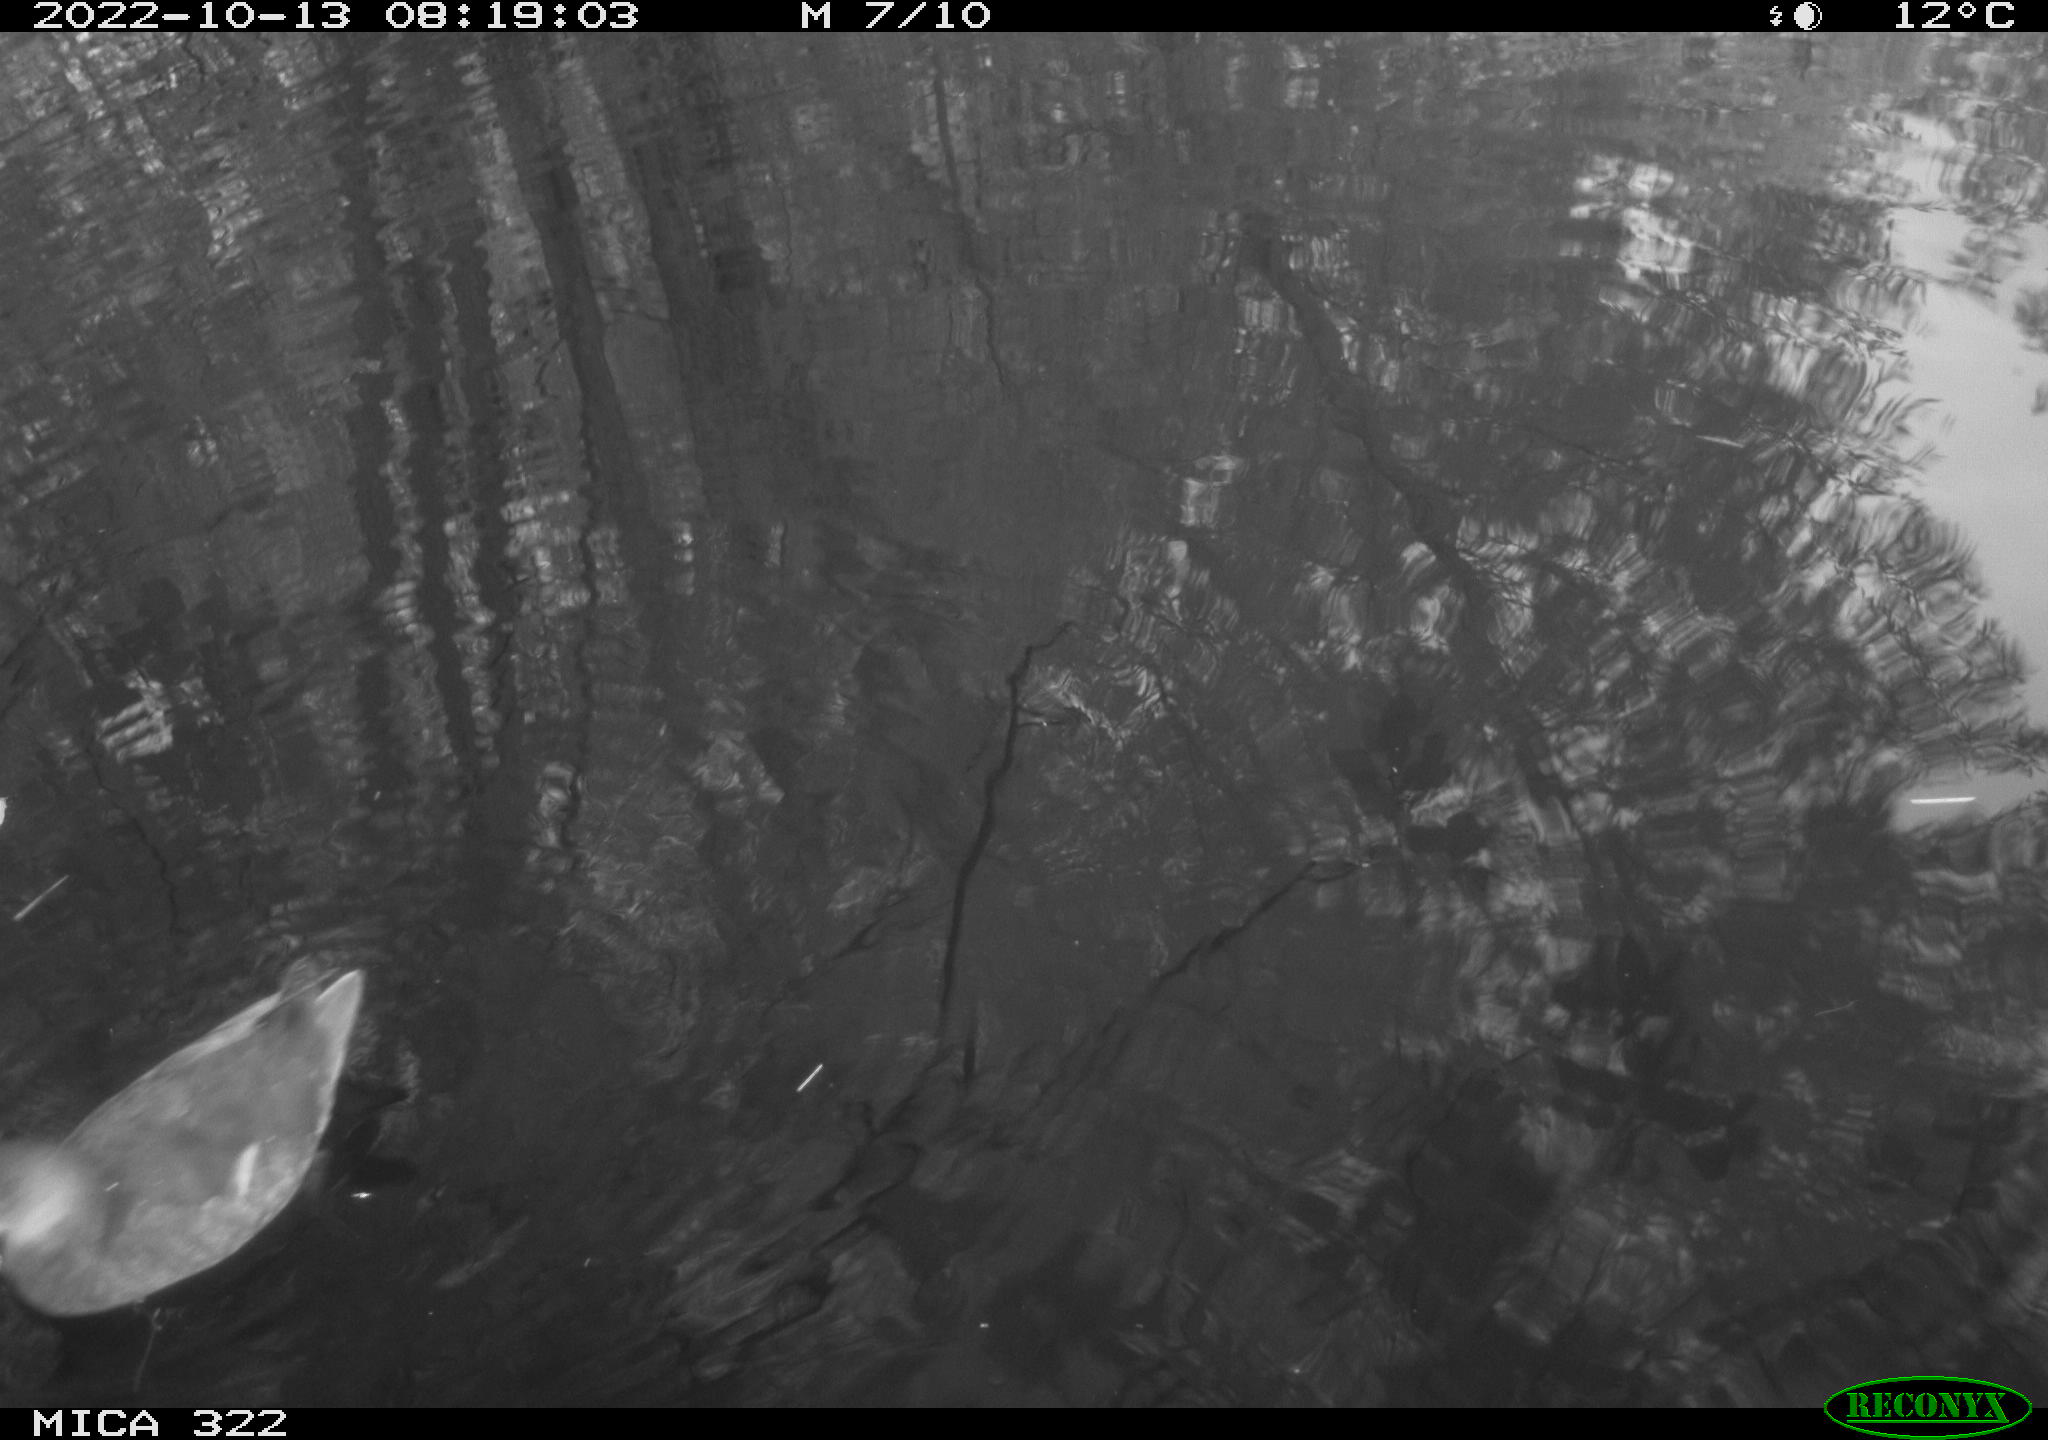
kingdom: Animalia
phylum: Chordata
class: Aves
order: Gruiformes
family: Rallidae
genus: Gallinula
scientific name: Gallinula chloropus
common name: Common moorhen
